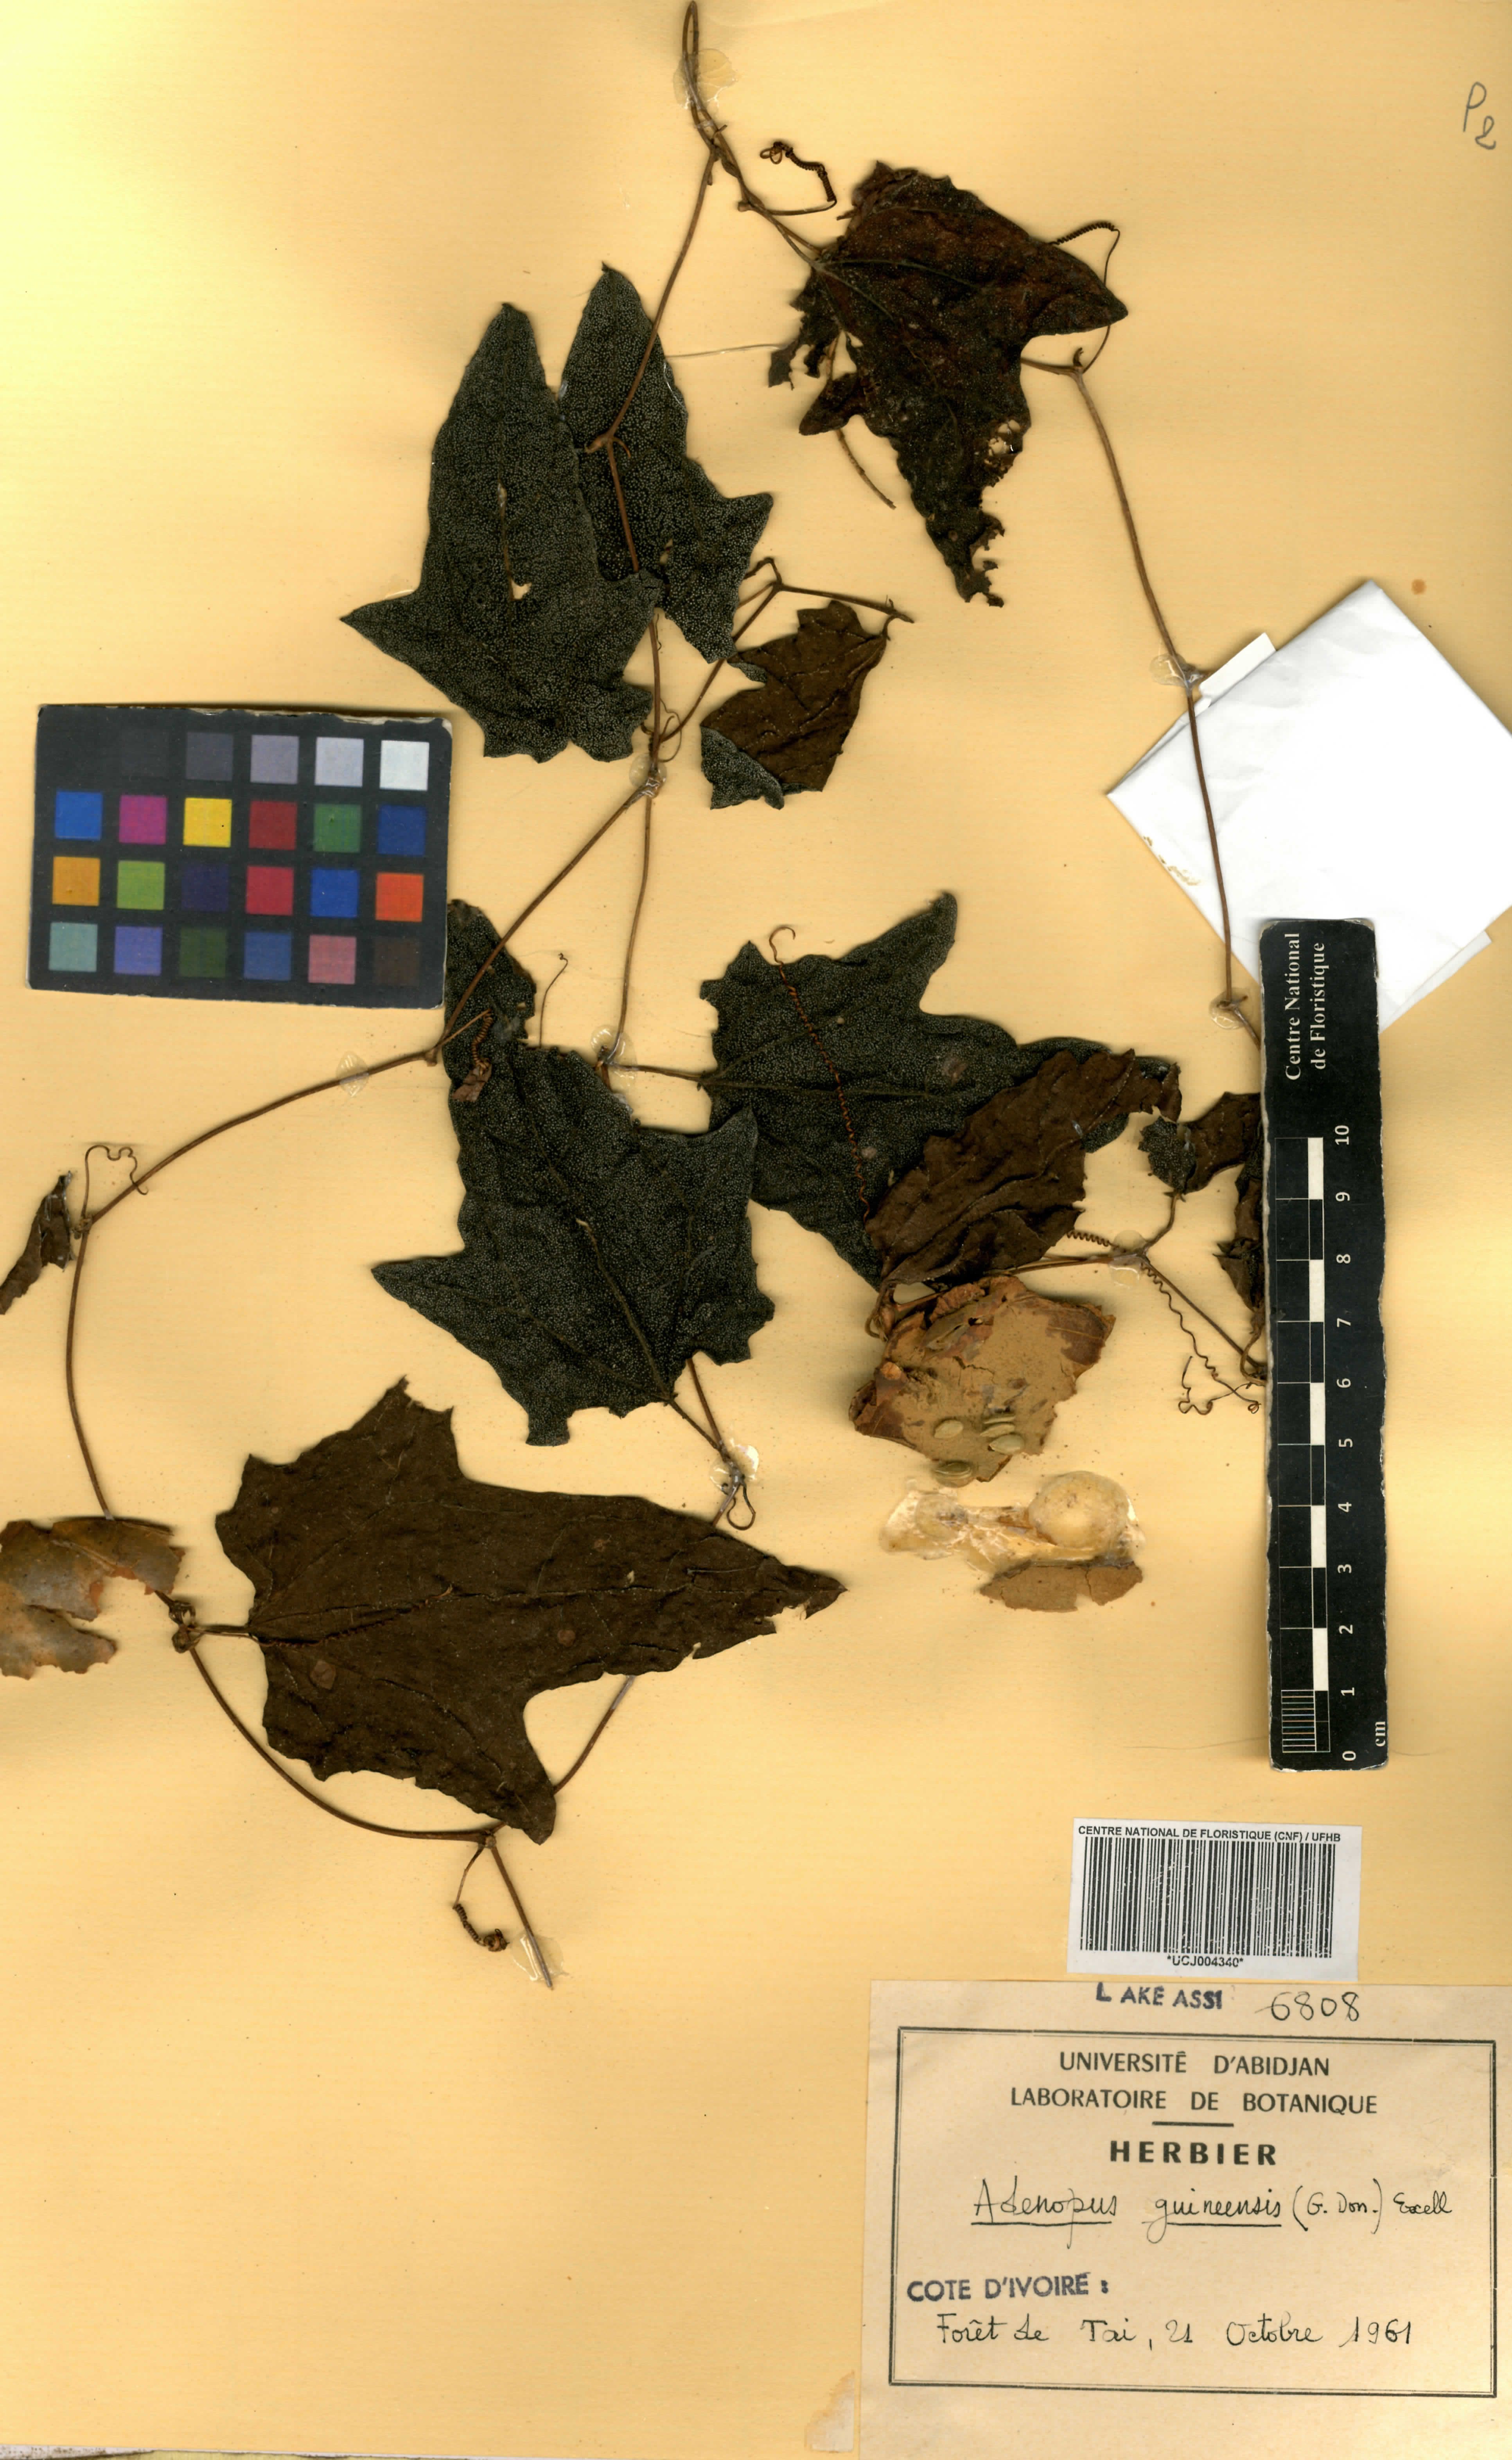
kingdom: Plantae
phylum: Tracheophyta
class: Magnoliopsida
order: Cucurbitales
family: Cucurbitaceae
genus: Lagenaria
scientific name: Lagenaria guineensis
